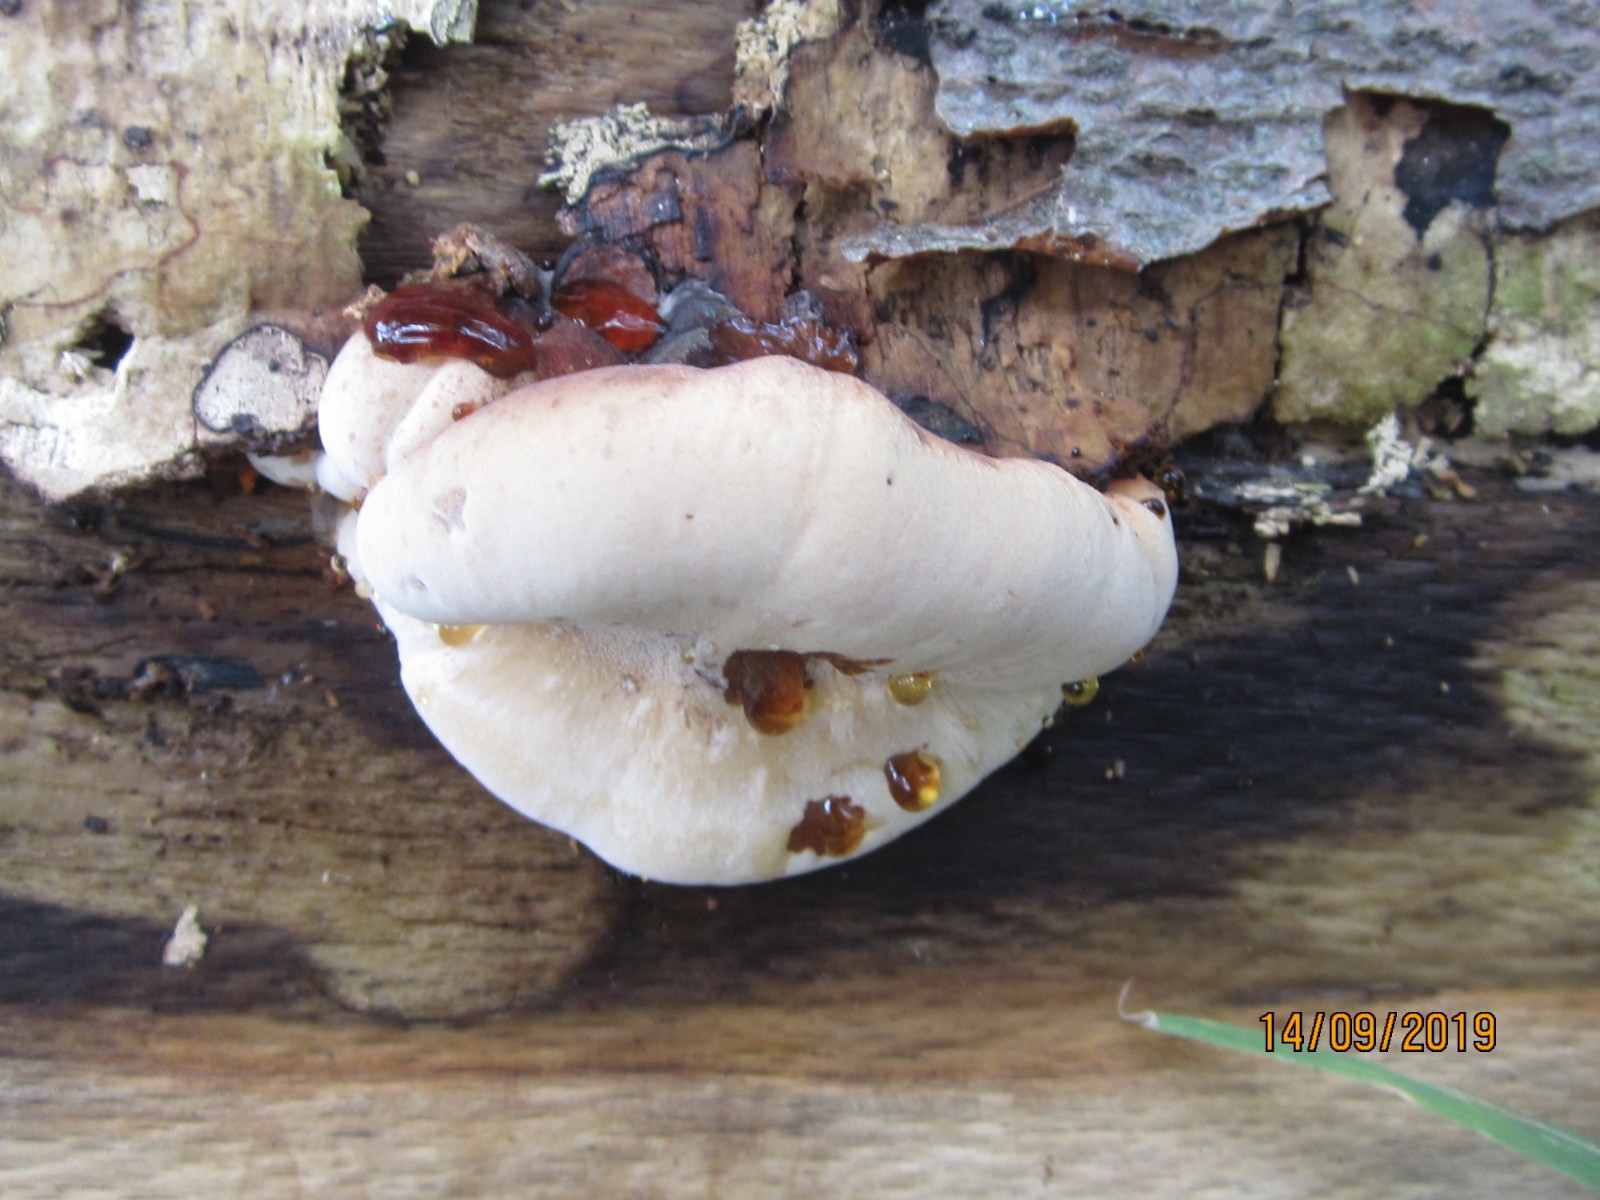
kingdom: Fungi
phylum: Basidiomycota
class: Agaricomycetes
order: Polyporales
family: Ischnodermataceae
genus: Ischnoderma
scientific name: Ischnoderma resinosum
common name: løv-tjæreporesvamp
